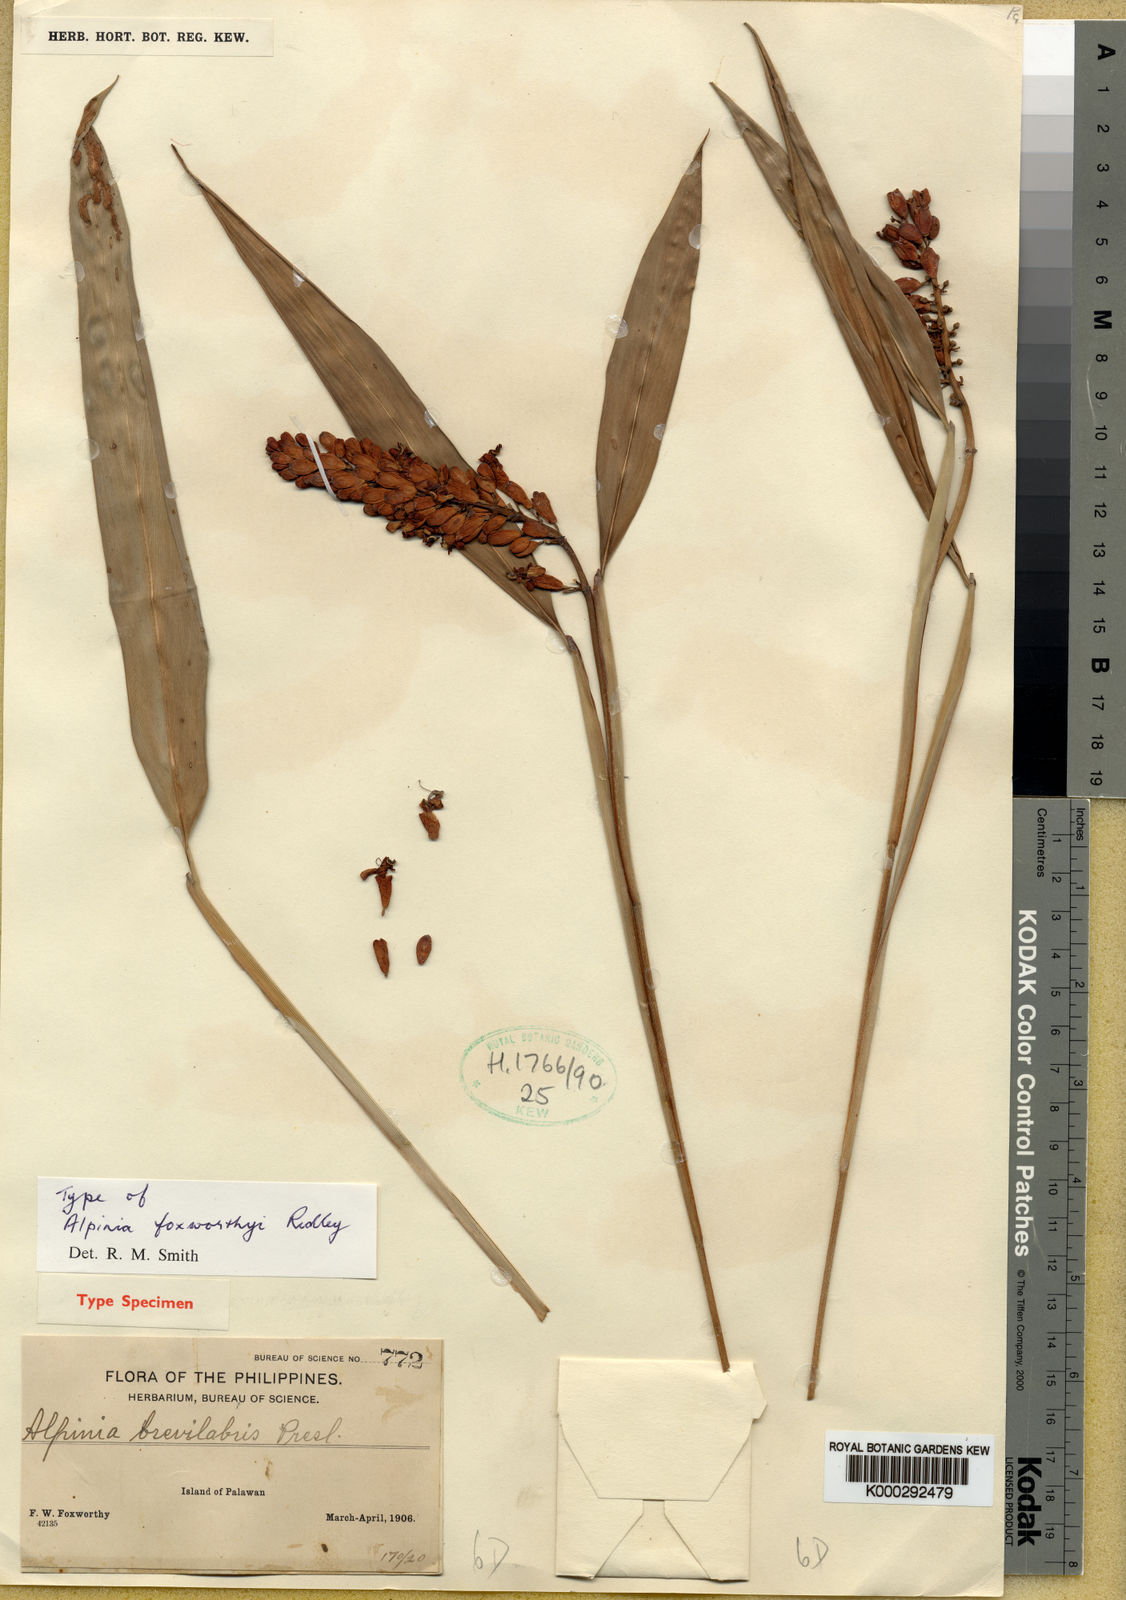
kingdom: Plantae
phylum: Tracheophyta
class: Liliopsida
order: Zingiberales
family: Zingiberaceae
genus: Alpinia
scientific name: Alpinia foxworthyi
